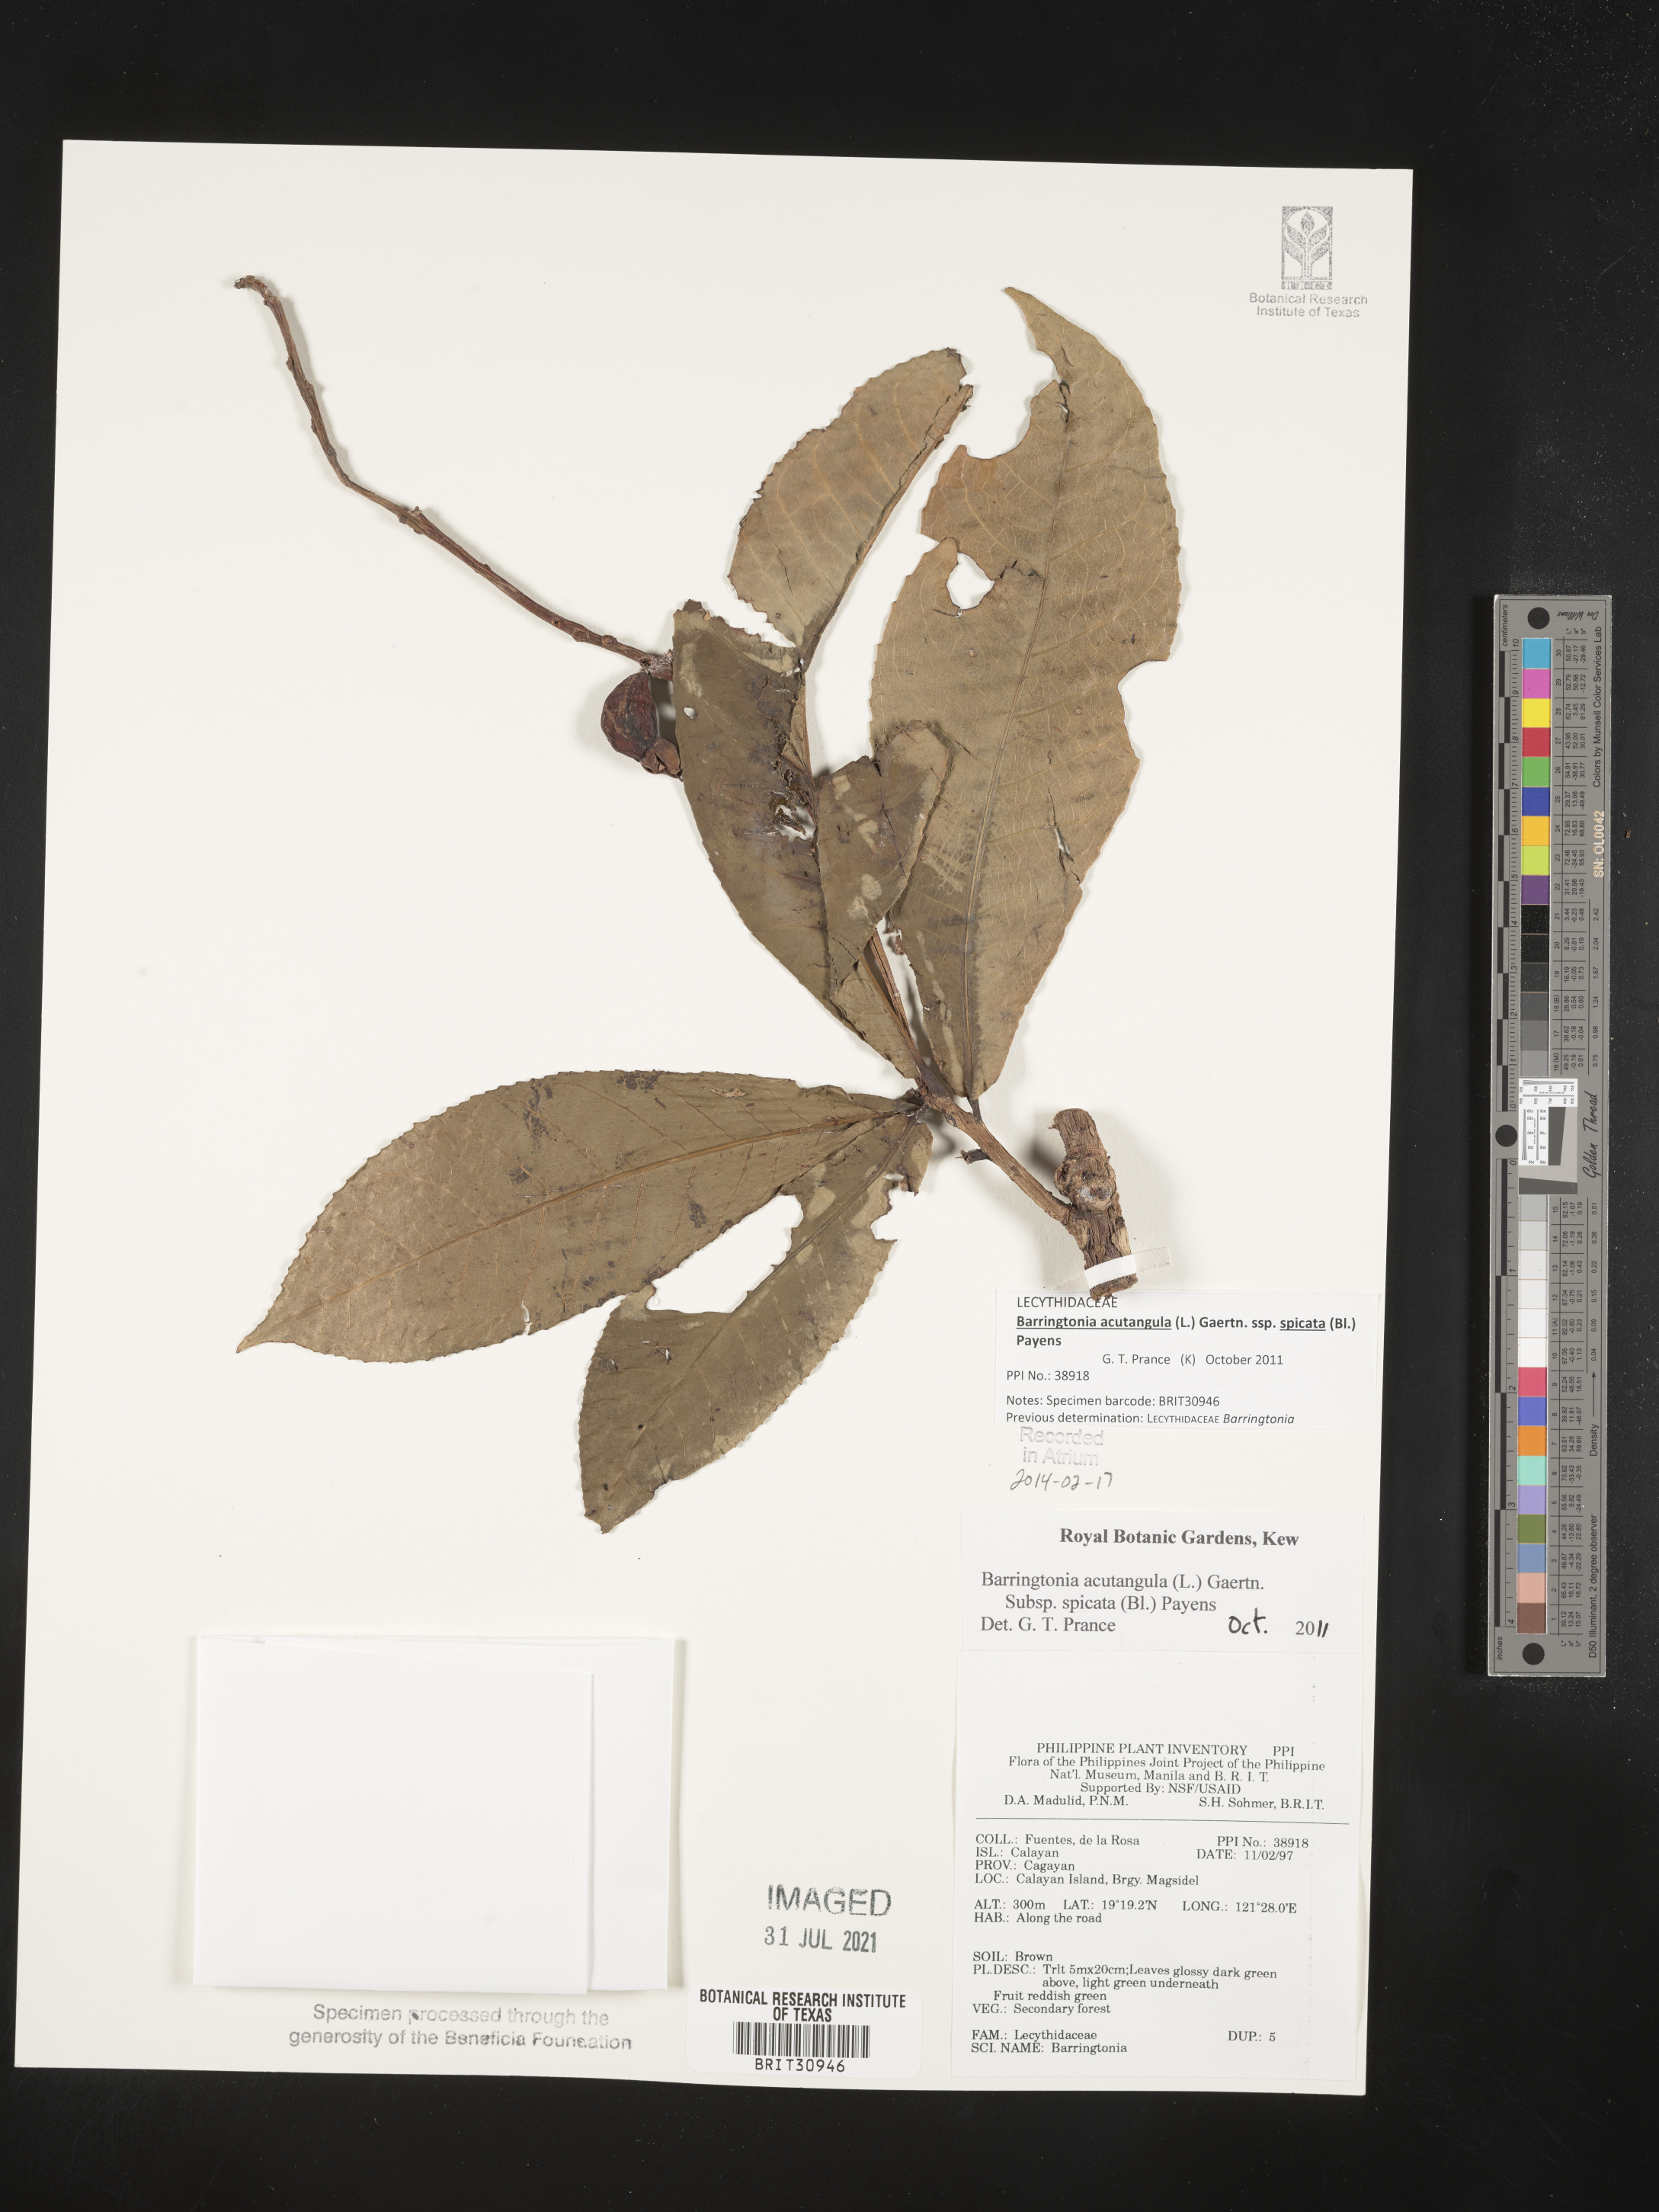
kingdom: Plantae
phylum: Tracheophyta
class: Magnoliopsida
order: Ericales
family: Lecythidaceae
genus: Barringtonia
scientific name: Barringtonia
